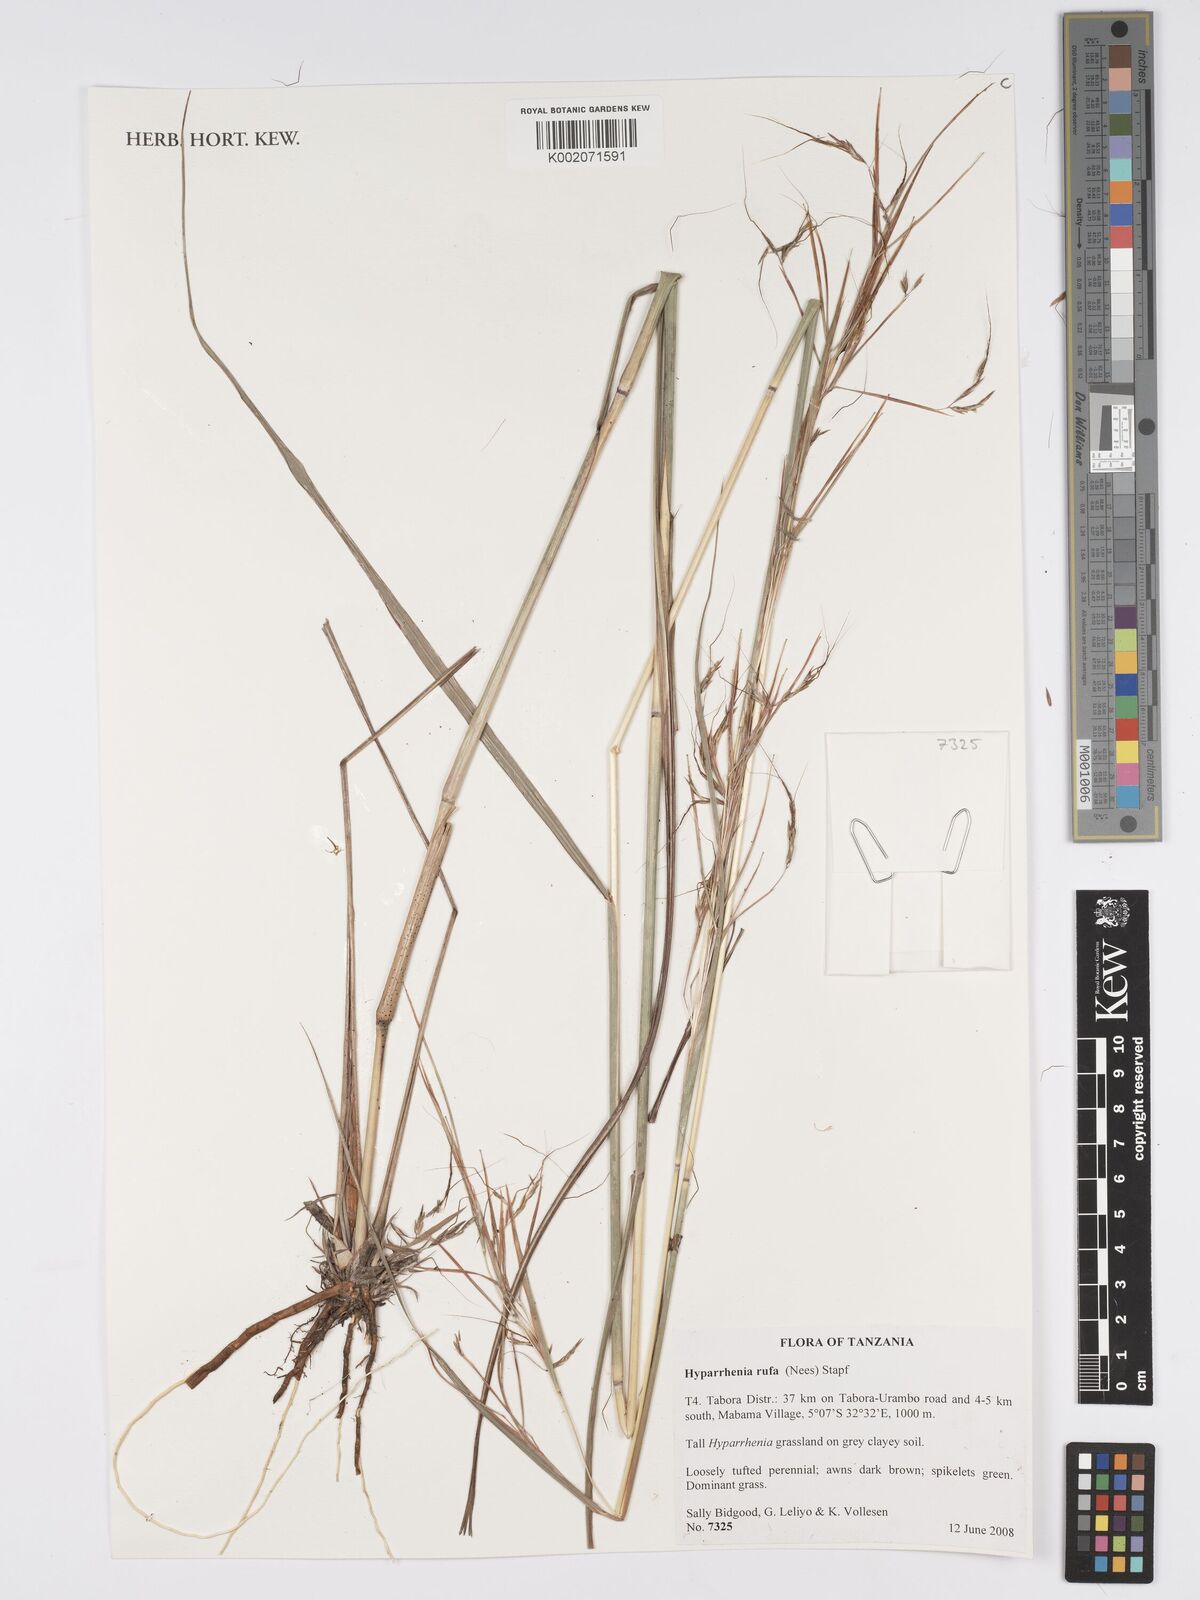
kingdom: Plantae
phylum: Tracheophyta
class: Liliopsida
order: Poales
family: Poaceae
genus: Hyparrhenia
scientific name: Hyparrhenia rufa
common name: Jaraguagrass
